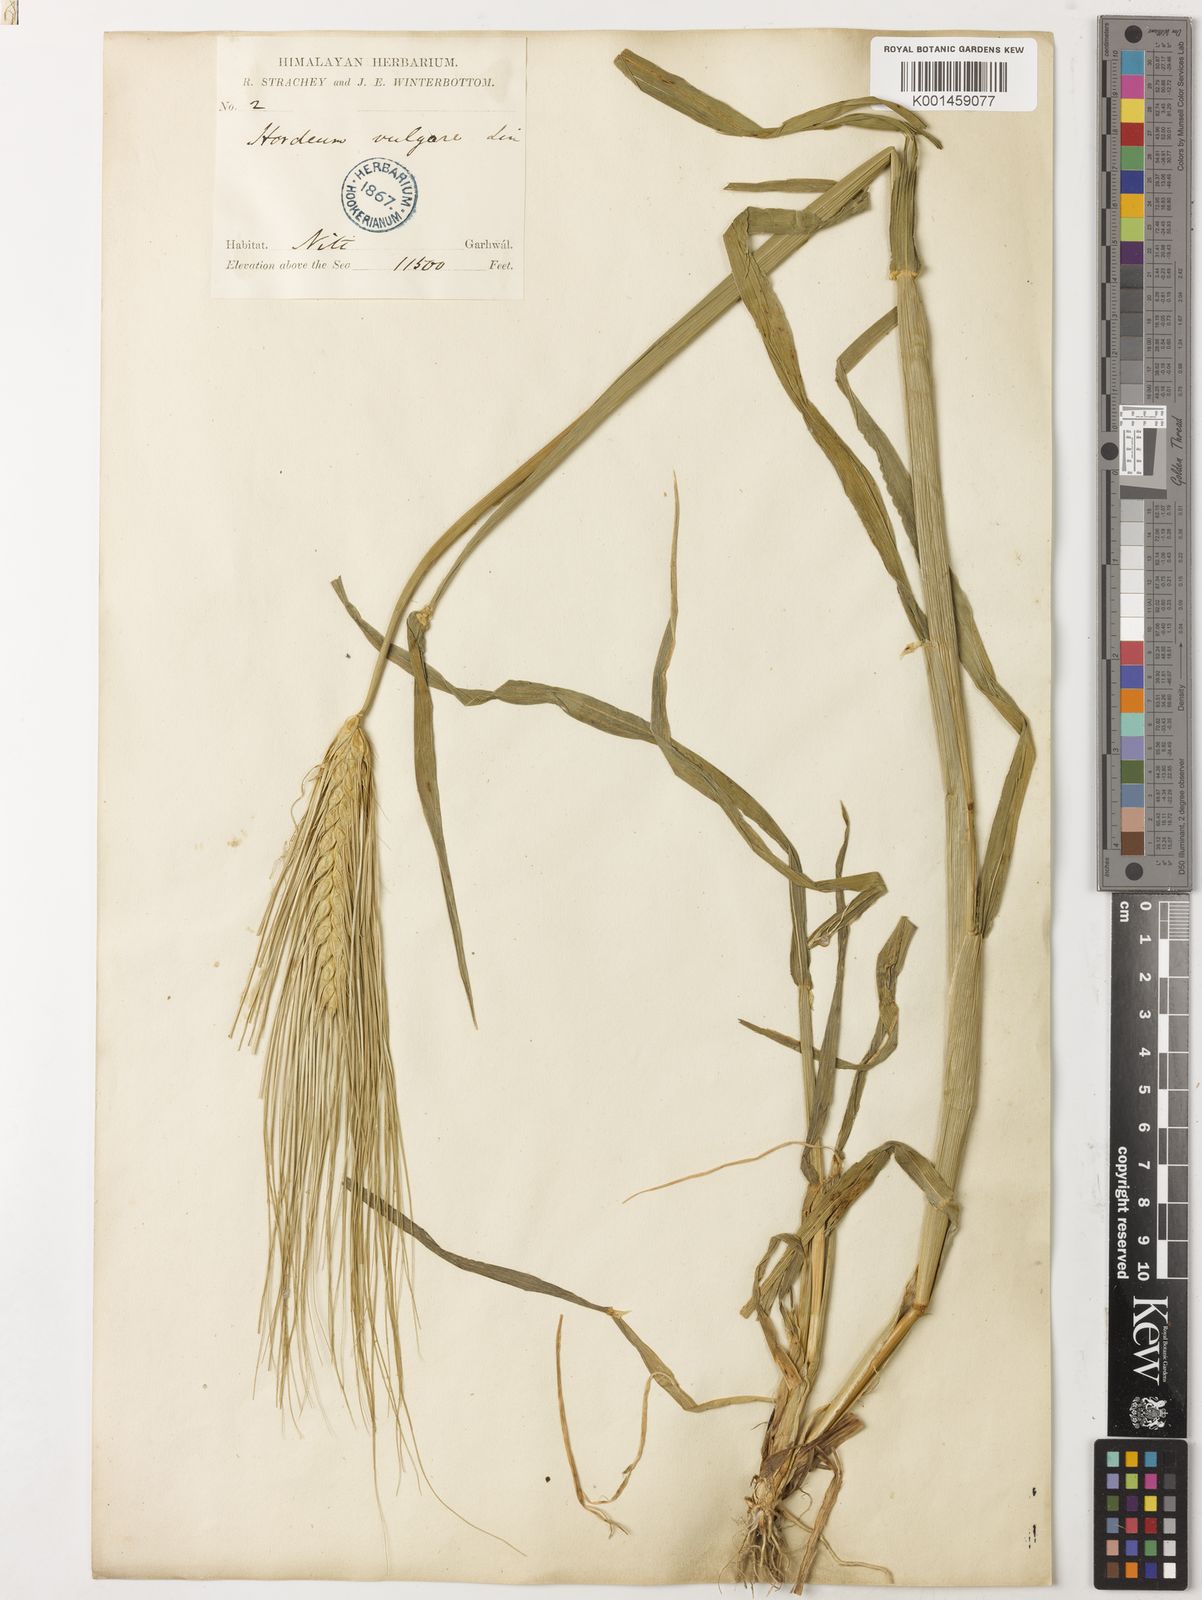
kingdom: Plantae
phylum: Tracheophyta
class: Liliopsida
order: Poales
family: Poaceae
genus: Hordeum
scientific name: Hordeum vulgare
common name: Common barley
